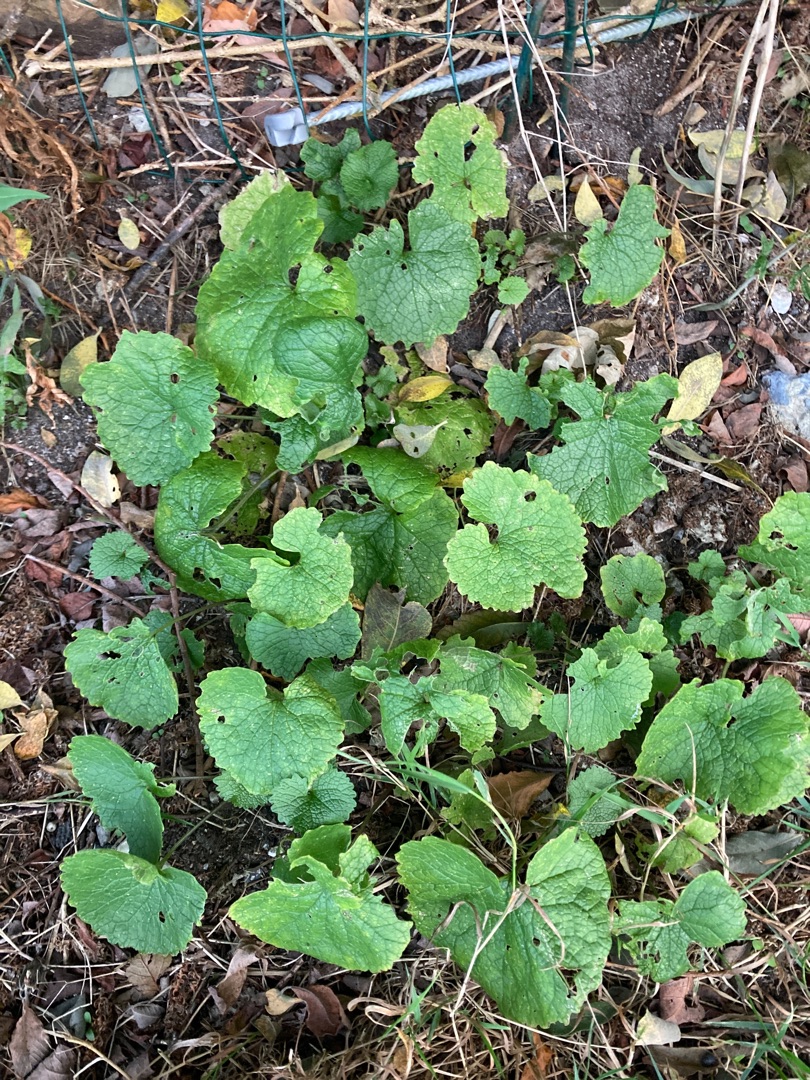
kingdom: Plantae
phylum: Tracheophyta
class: Magnoliopsida
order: Brassicales
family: Brassicaceae
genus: Alliaria
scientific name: Alliaria petiolata
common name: Løgkarse
